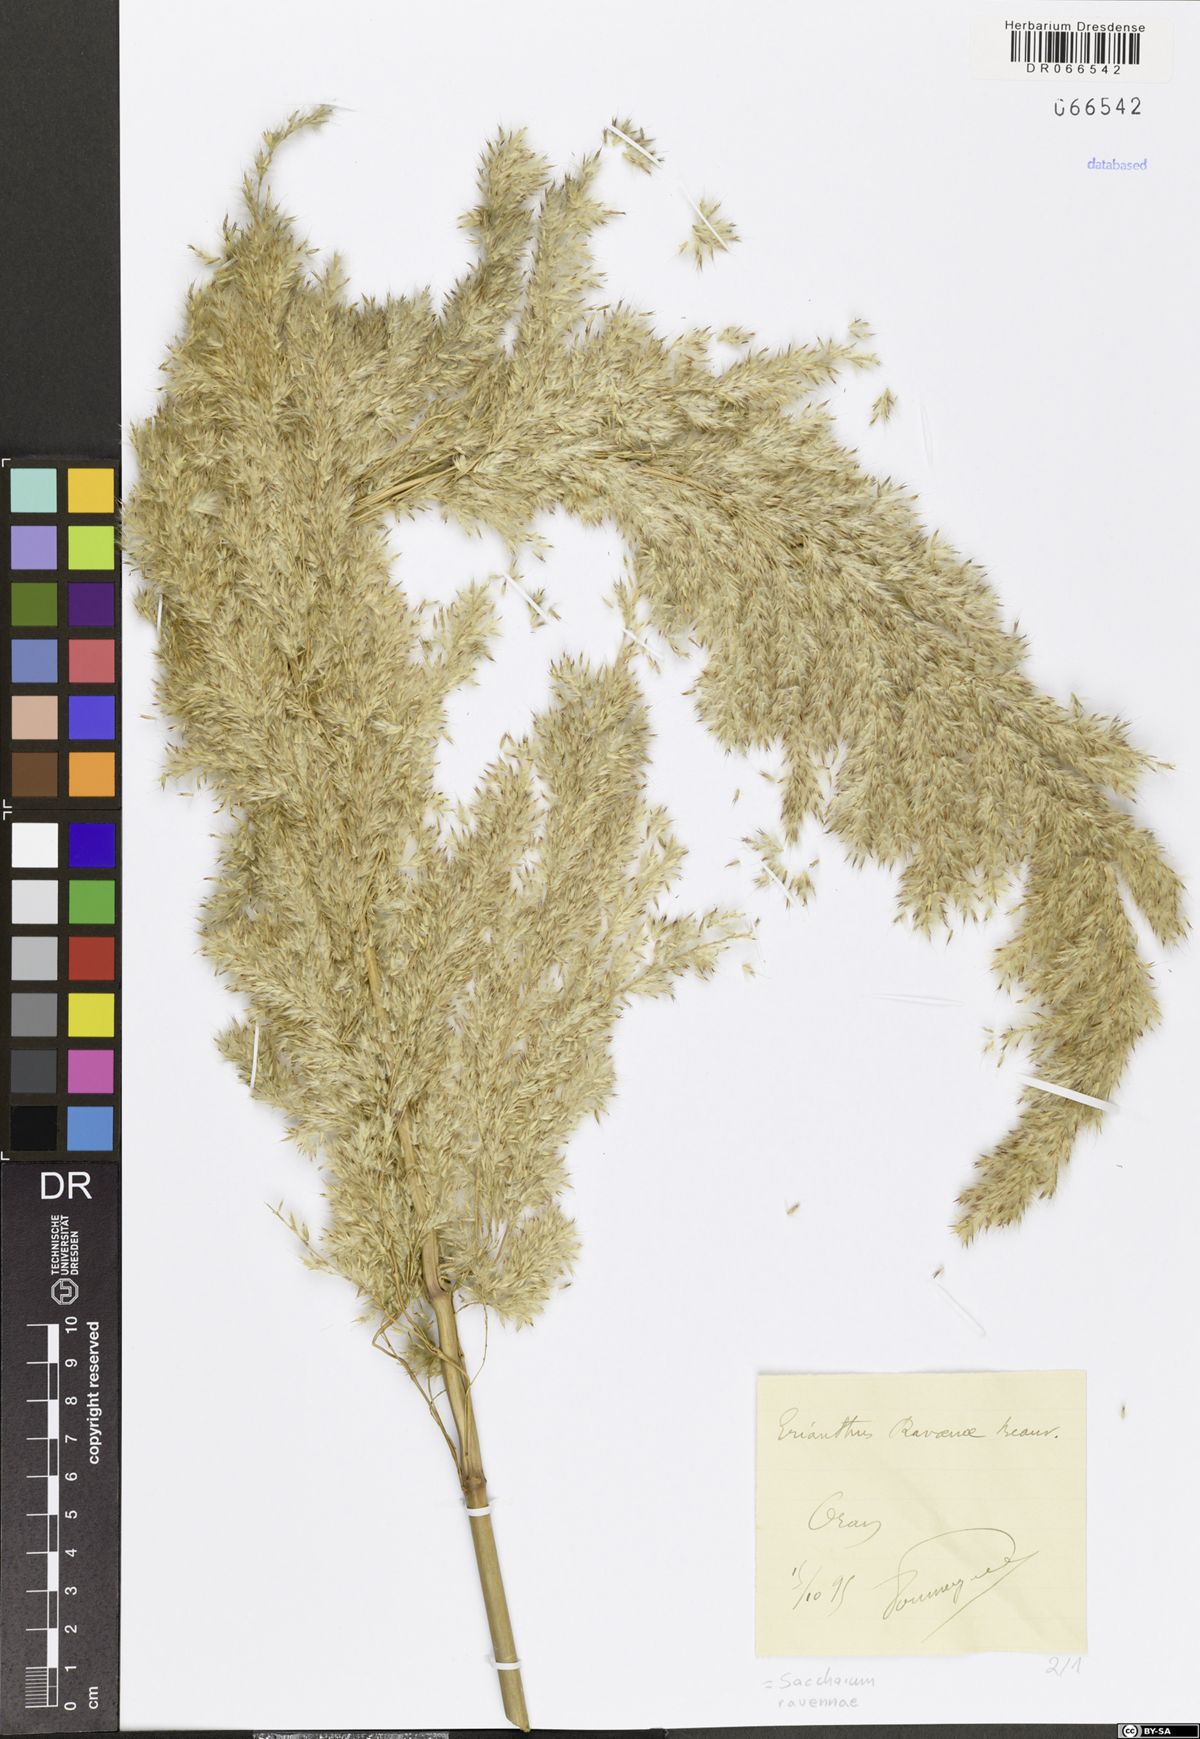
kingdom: Plantae
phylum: Tracheophyta
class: Liliopsida
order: Poales
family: Poaceae
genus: Tripidium
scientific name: Tripidium ravennae
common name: Ravenna grass
